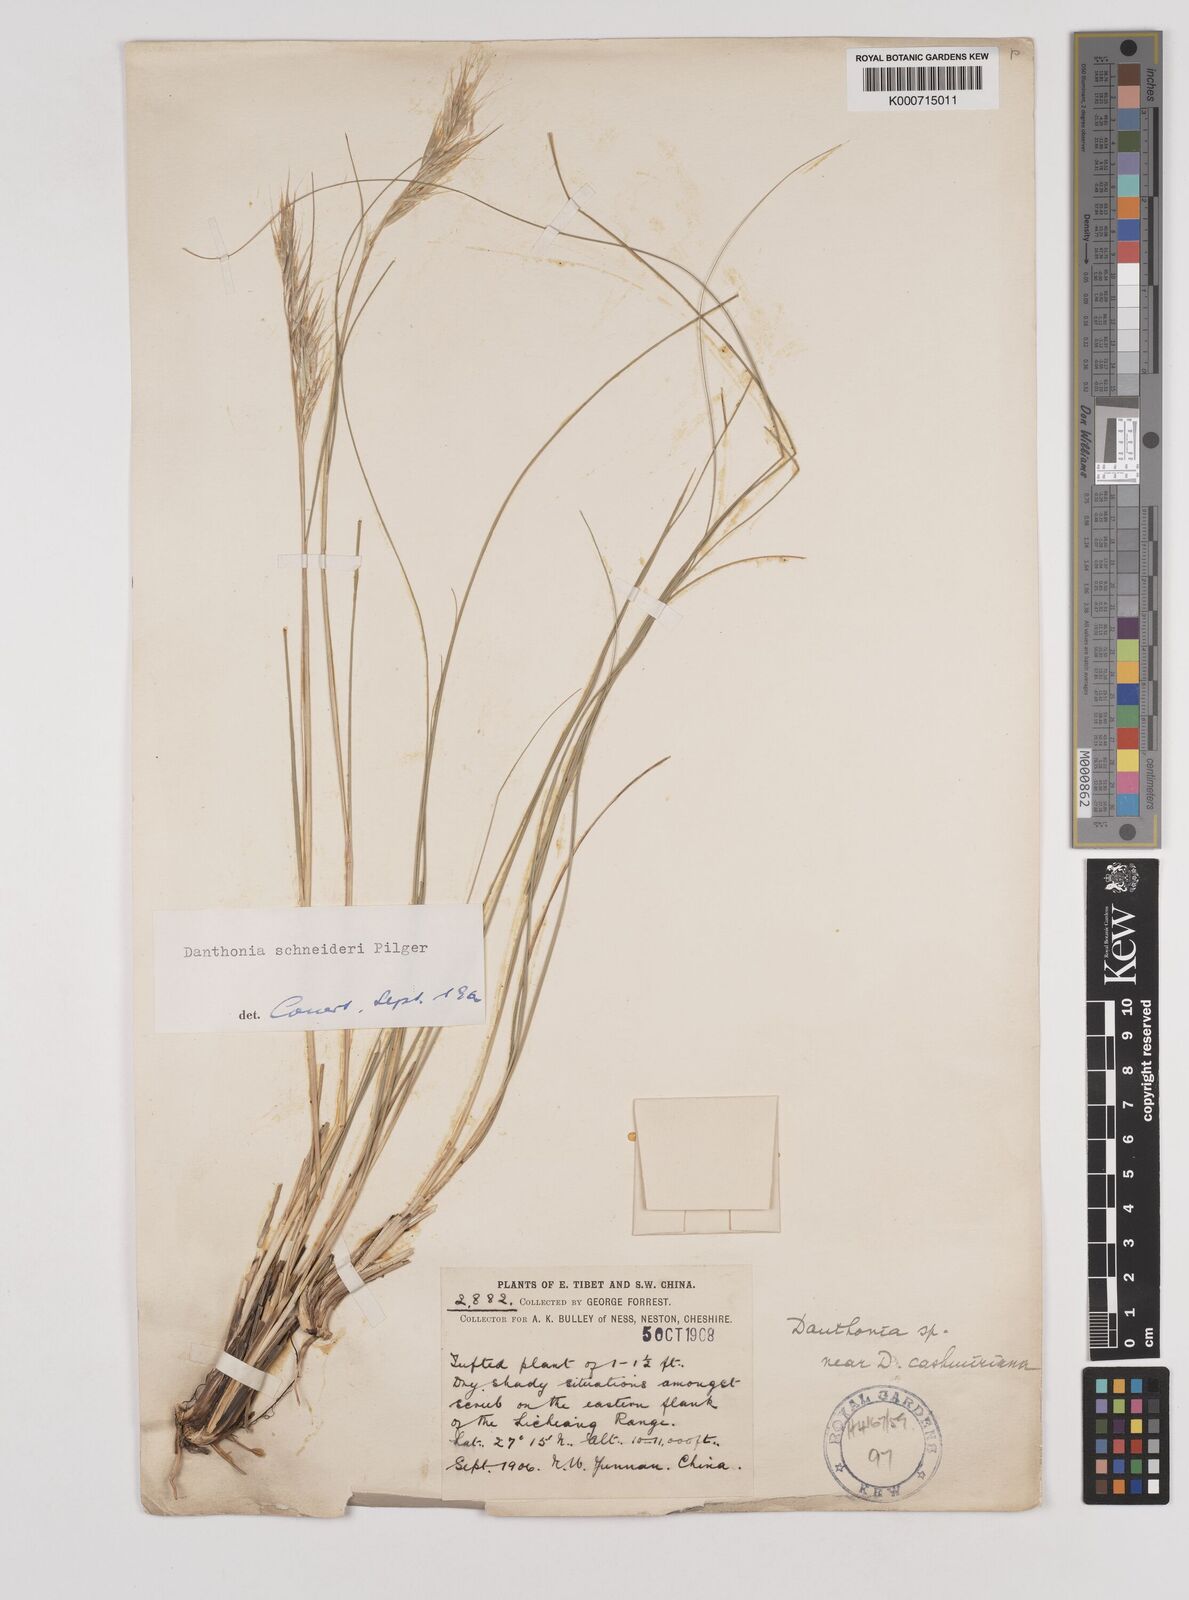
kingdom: Plantae
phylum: Tracheophyta
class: Liliopsida
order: Poales
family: Poaceae
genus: Rytidosperma
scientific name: Rytidosperma
